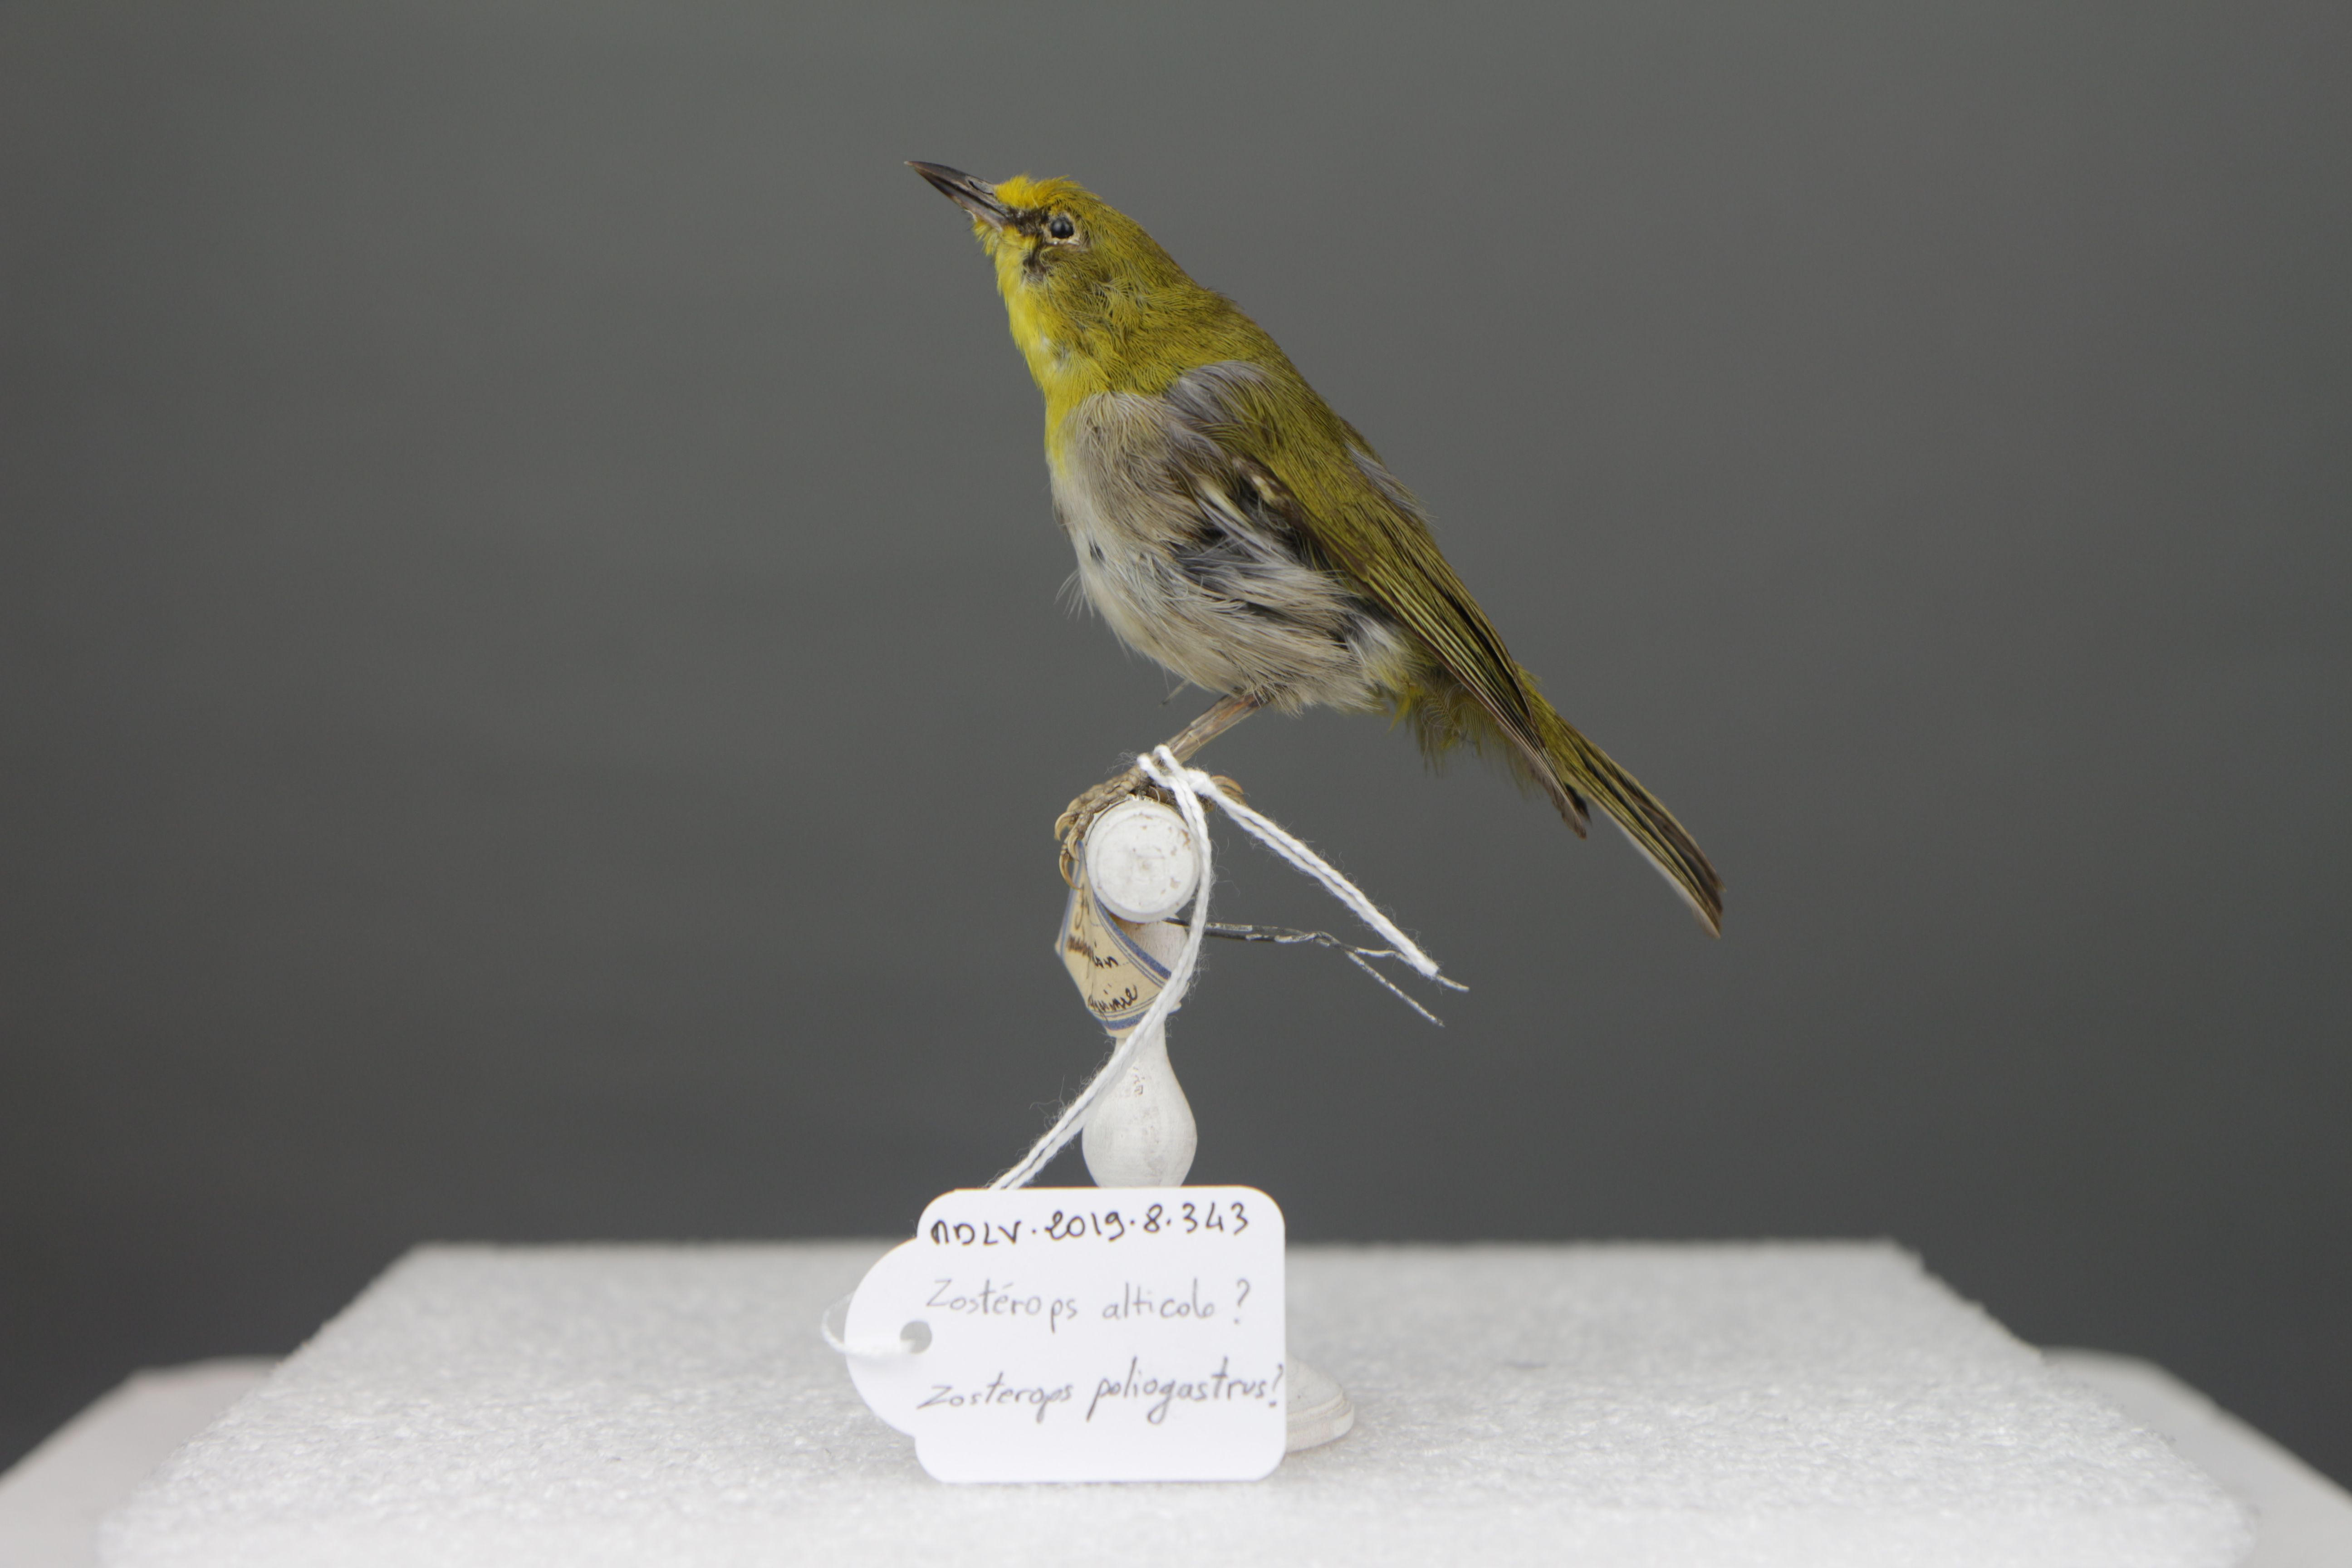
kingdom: Animalia
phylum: Chordata
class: Aves
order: Passeriformes
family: Zosteropidae
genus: Zosterops
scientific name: Zosterops poliogastrus
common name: Montane white-eye
